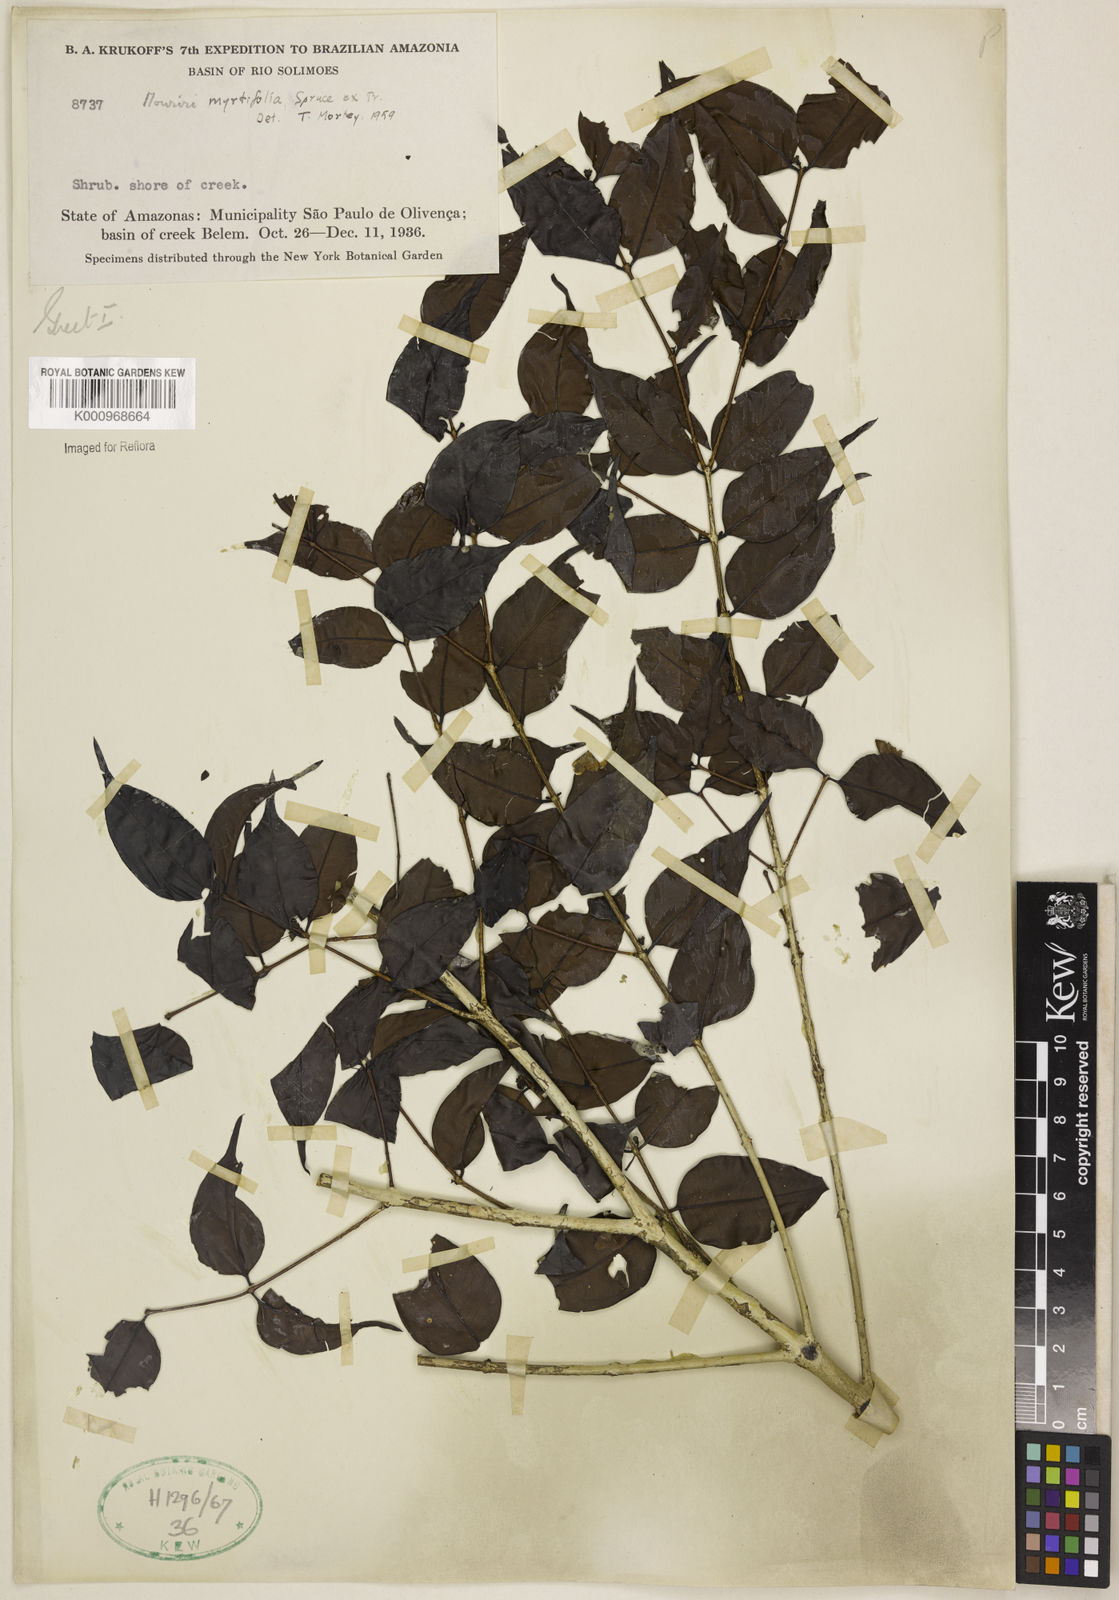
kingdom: Plantae
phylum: Tracheophyta
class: Magnoliopsida
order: Myrtales
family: Melastomataceae
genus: Mouriri
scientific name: Mouriri myrtifolia
